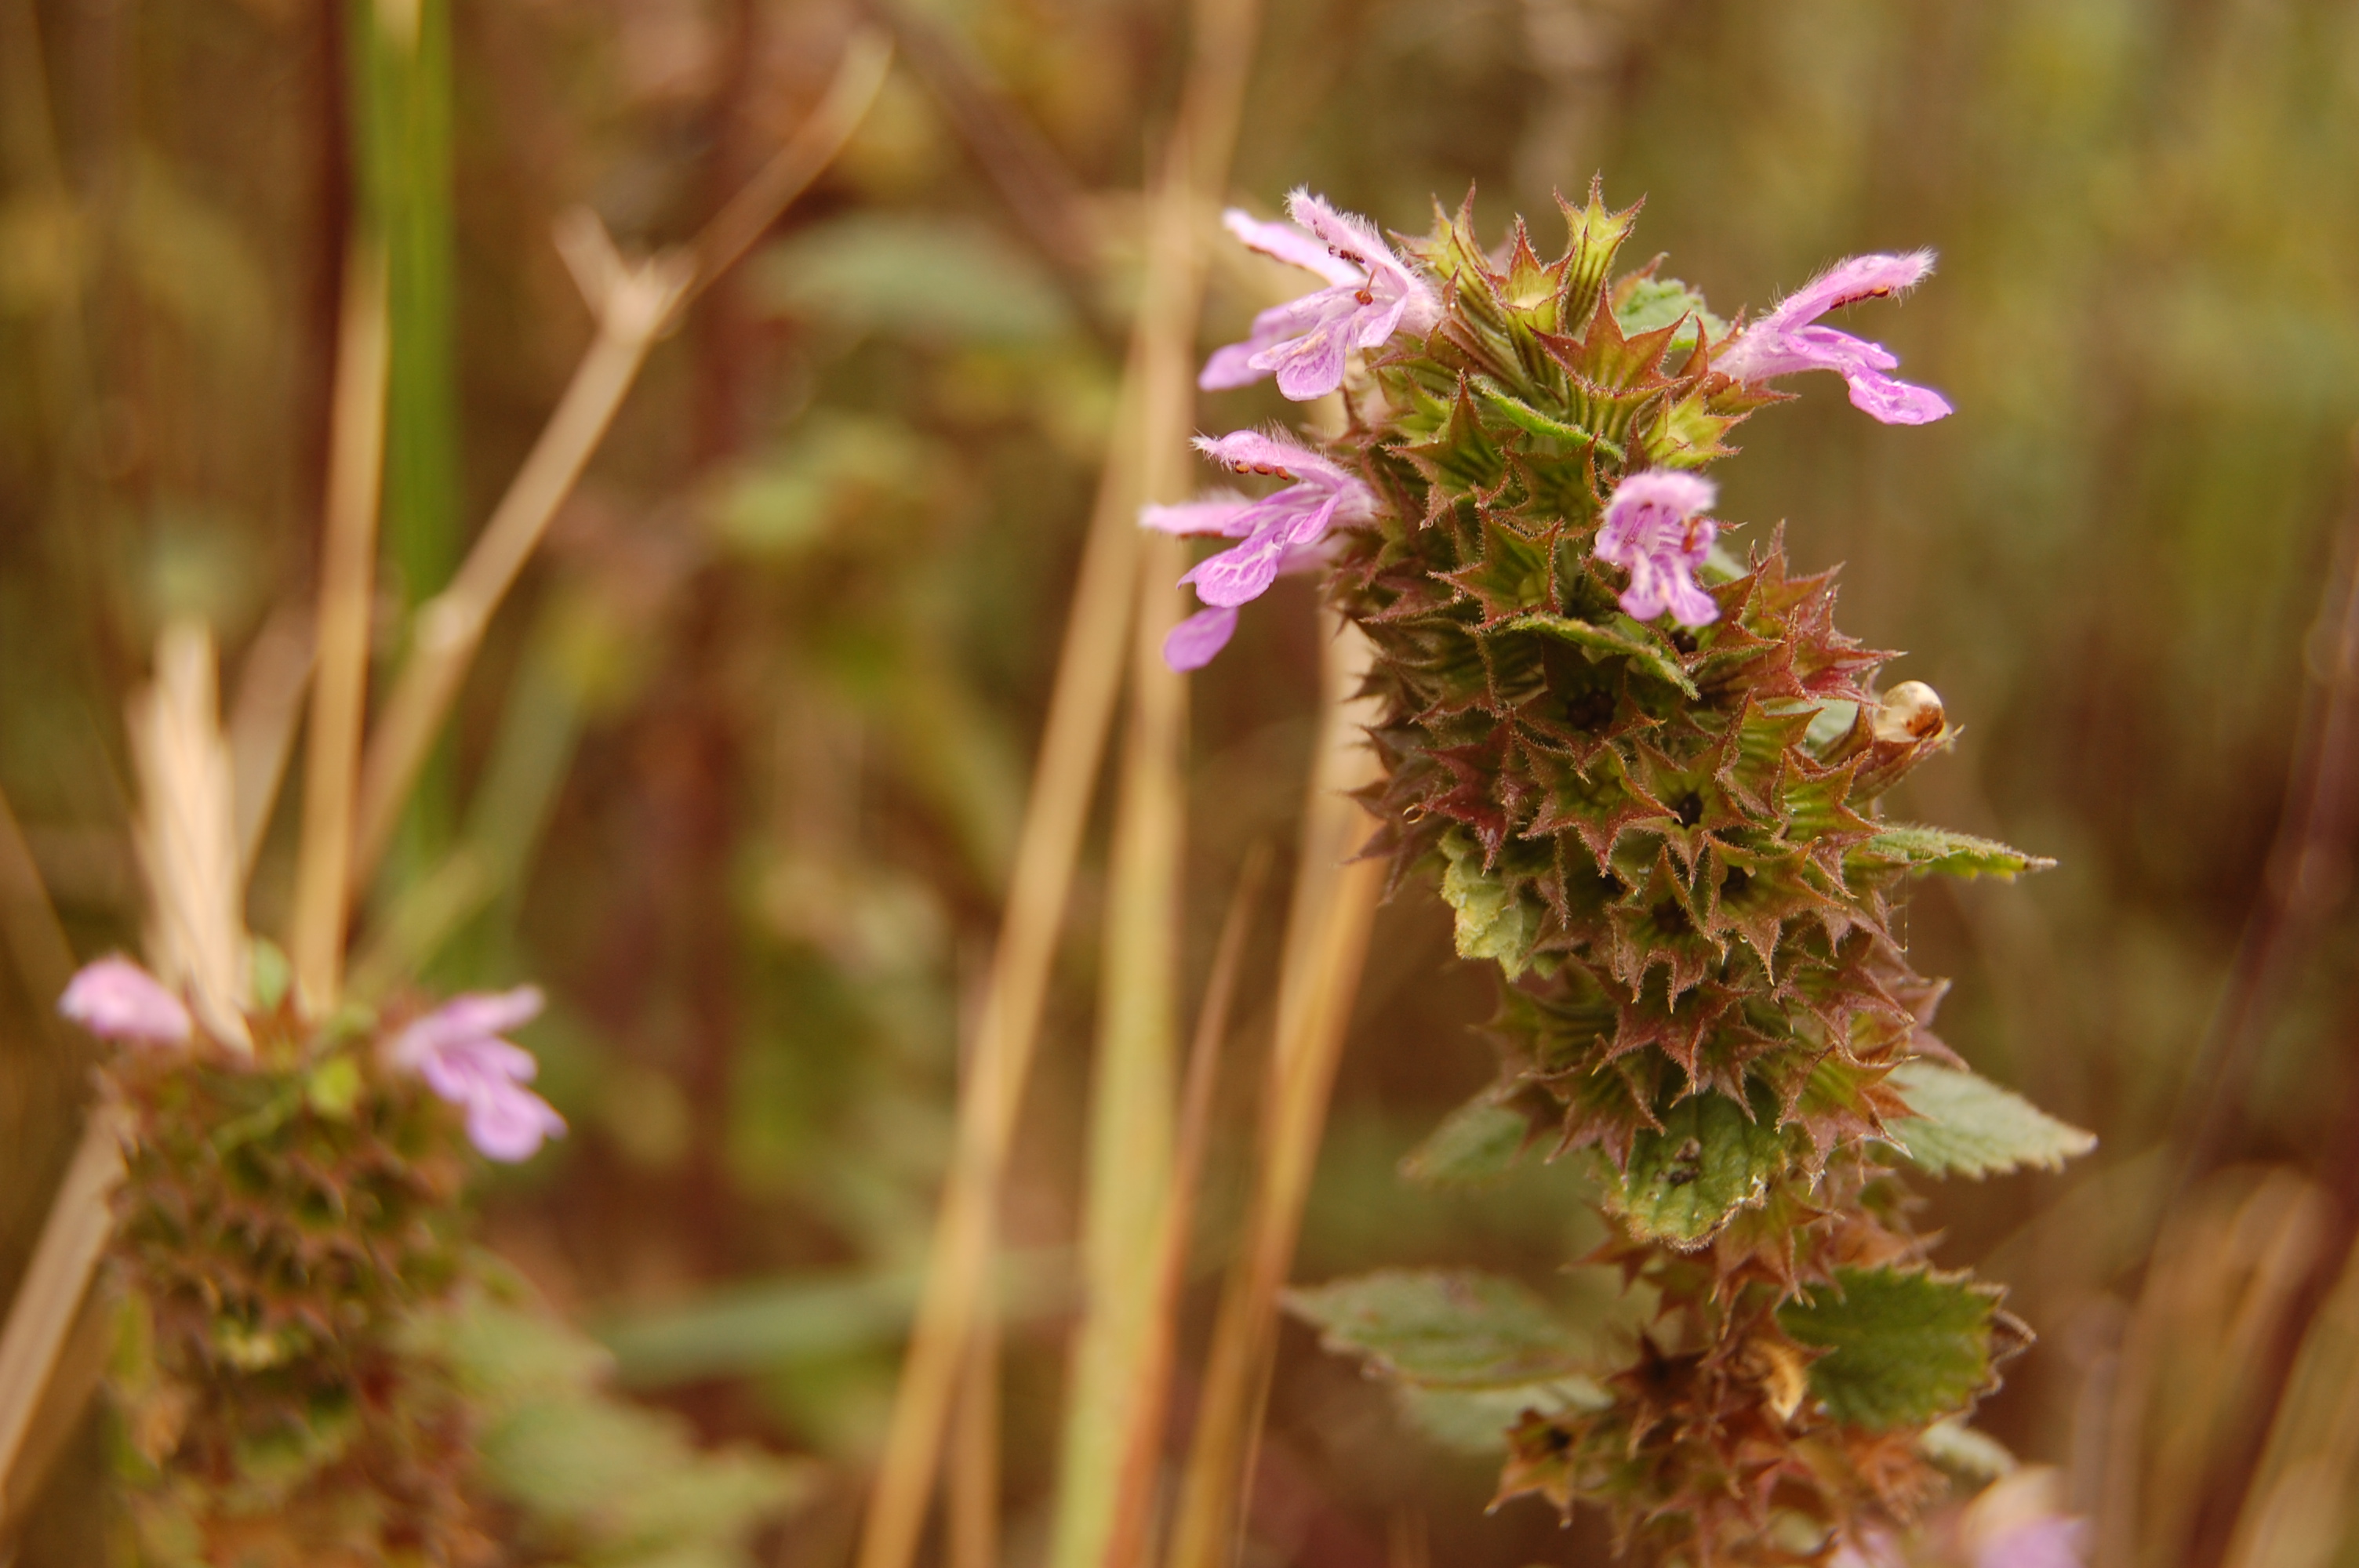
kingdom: Plantae
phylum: Tracheophyta
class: Magnoliopsida
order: Lamiales
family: Lamiaceae
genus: Ballota
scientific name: Ballota nigra
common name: Black horehound
